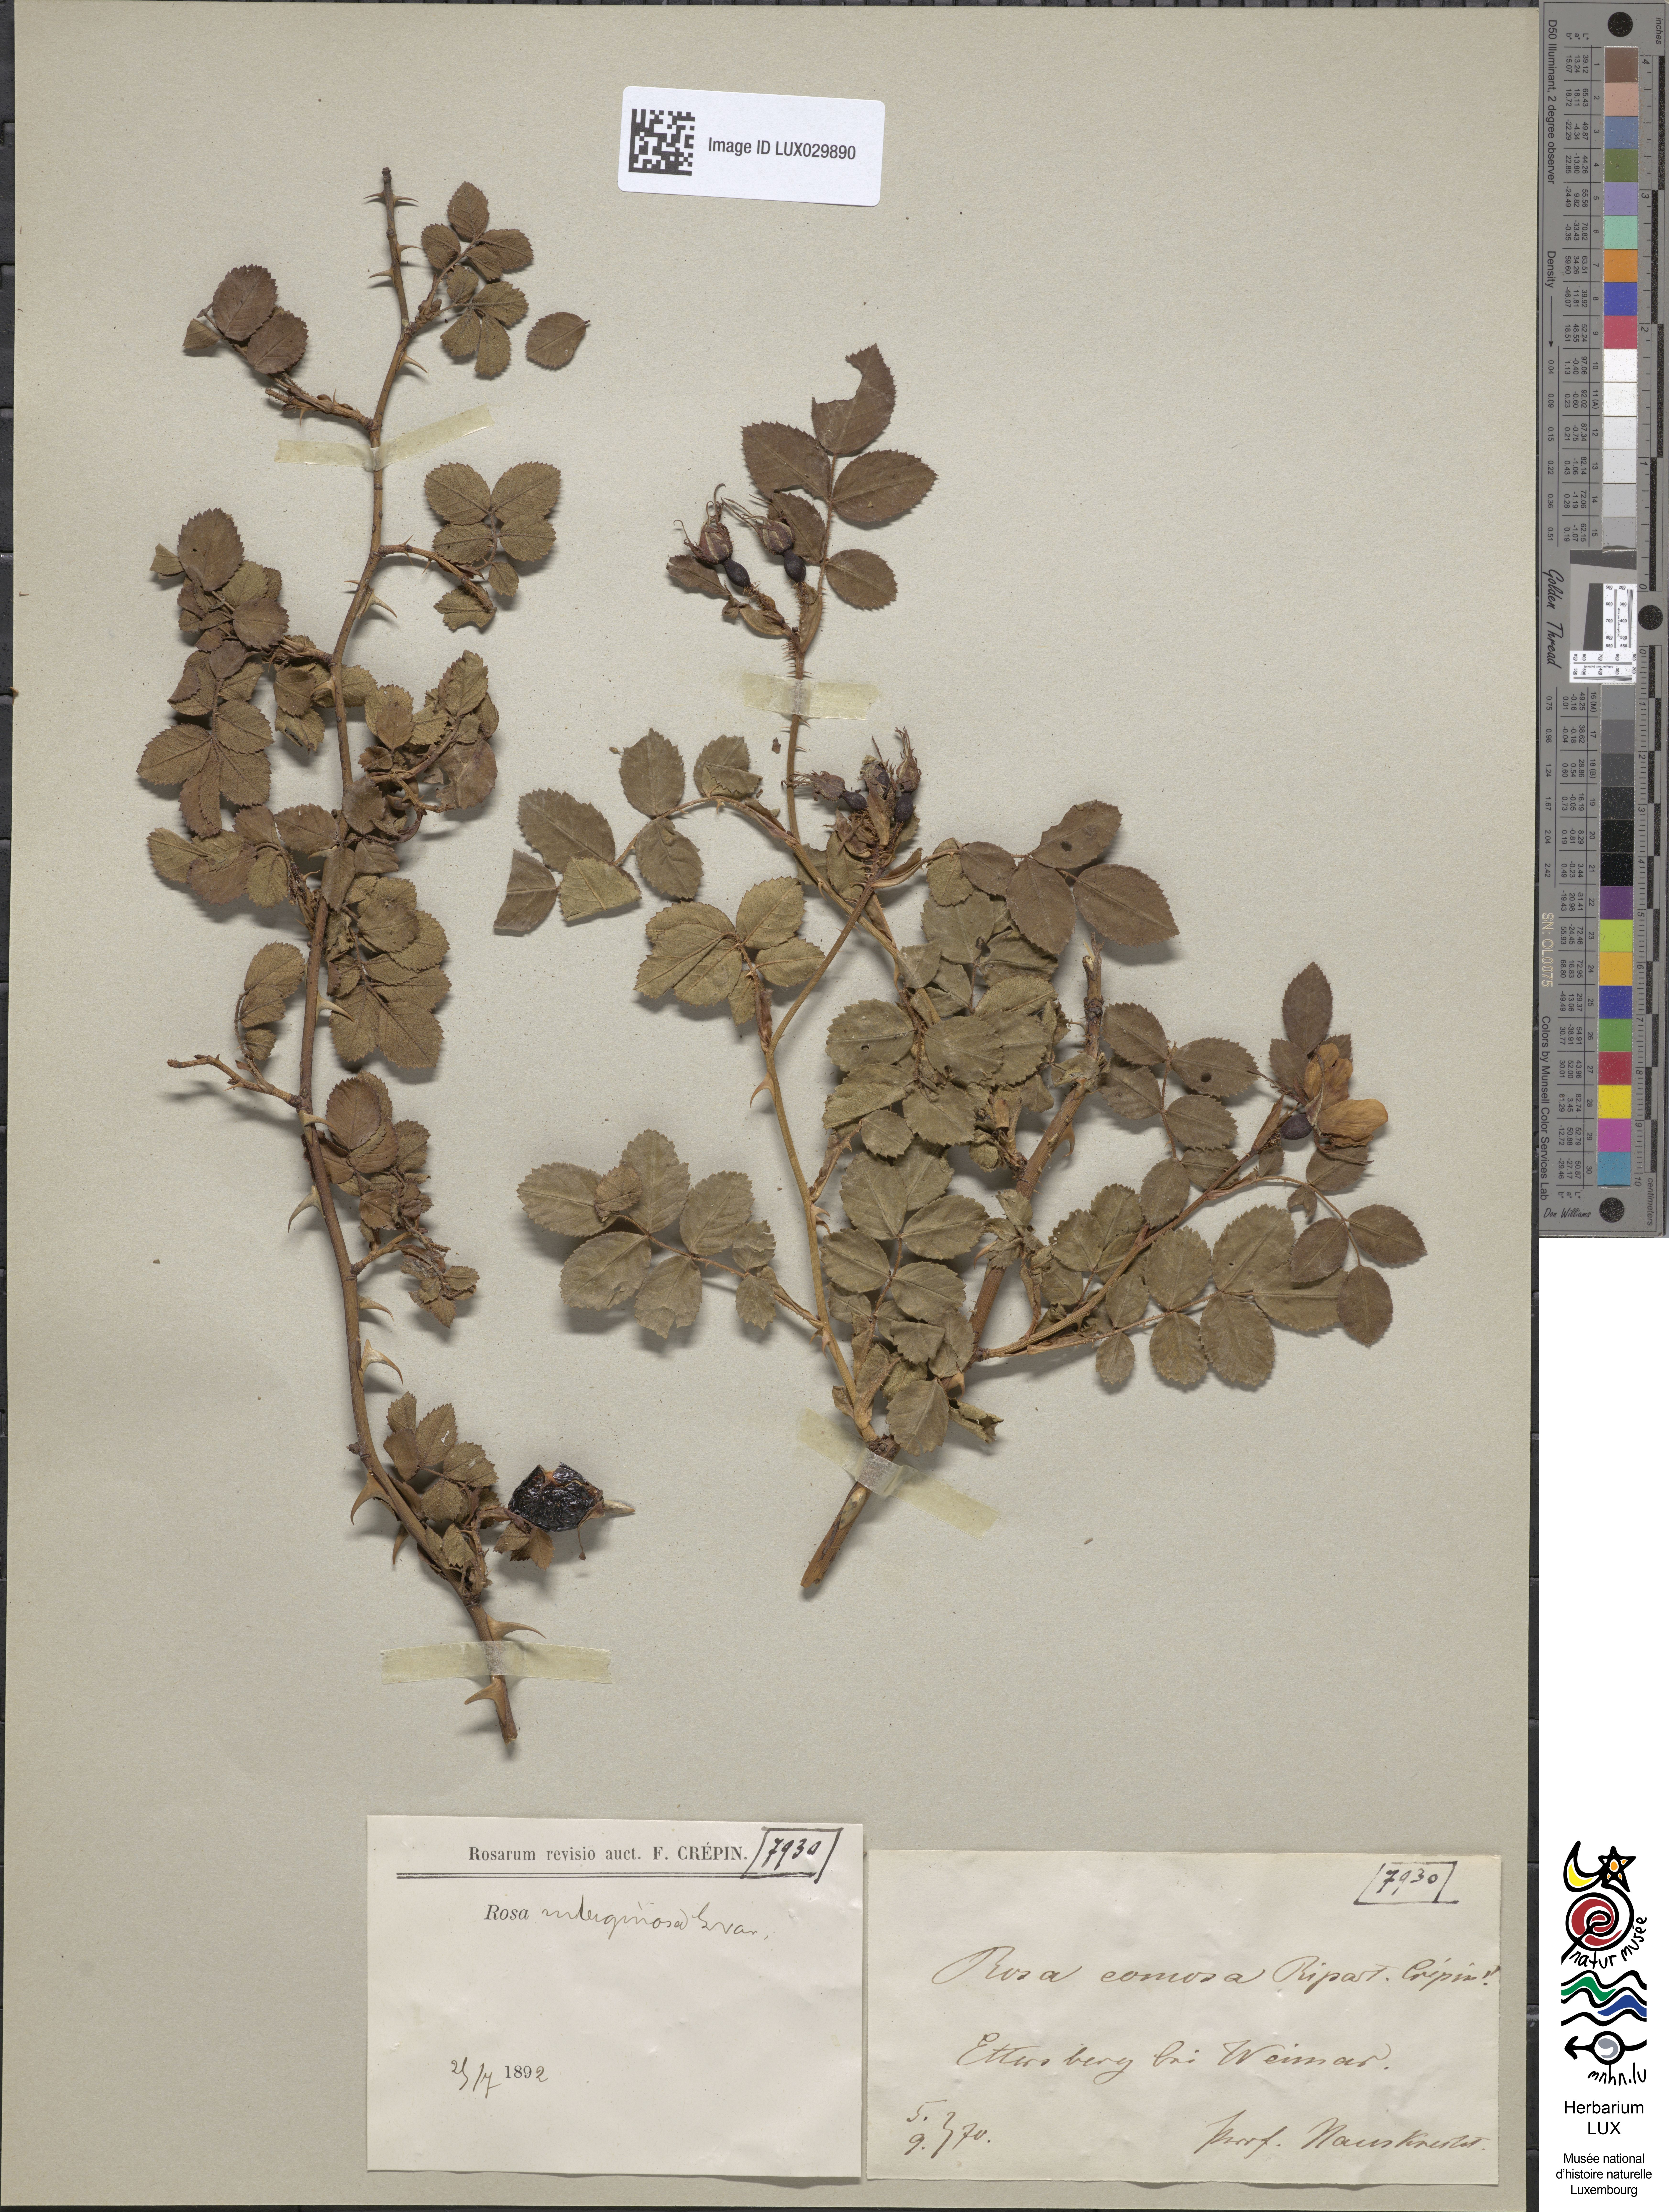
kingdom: Plantae
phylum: Tracheophyta
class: Magnoliopsida
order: Rosales
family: Rosaceae
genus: Rosa
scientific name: Rosa rubiginosa
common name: Sweet-briar
